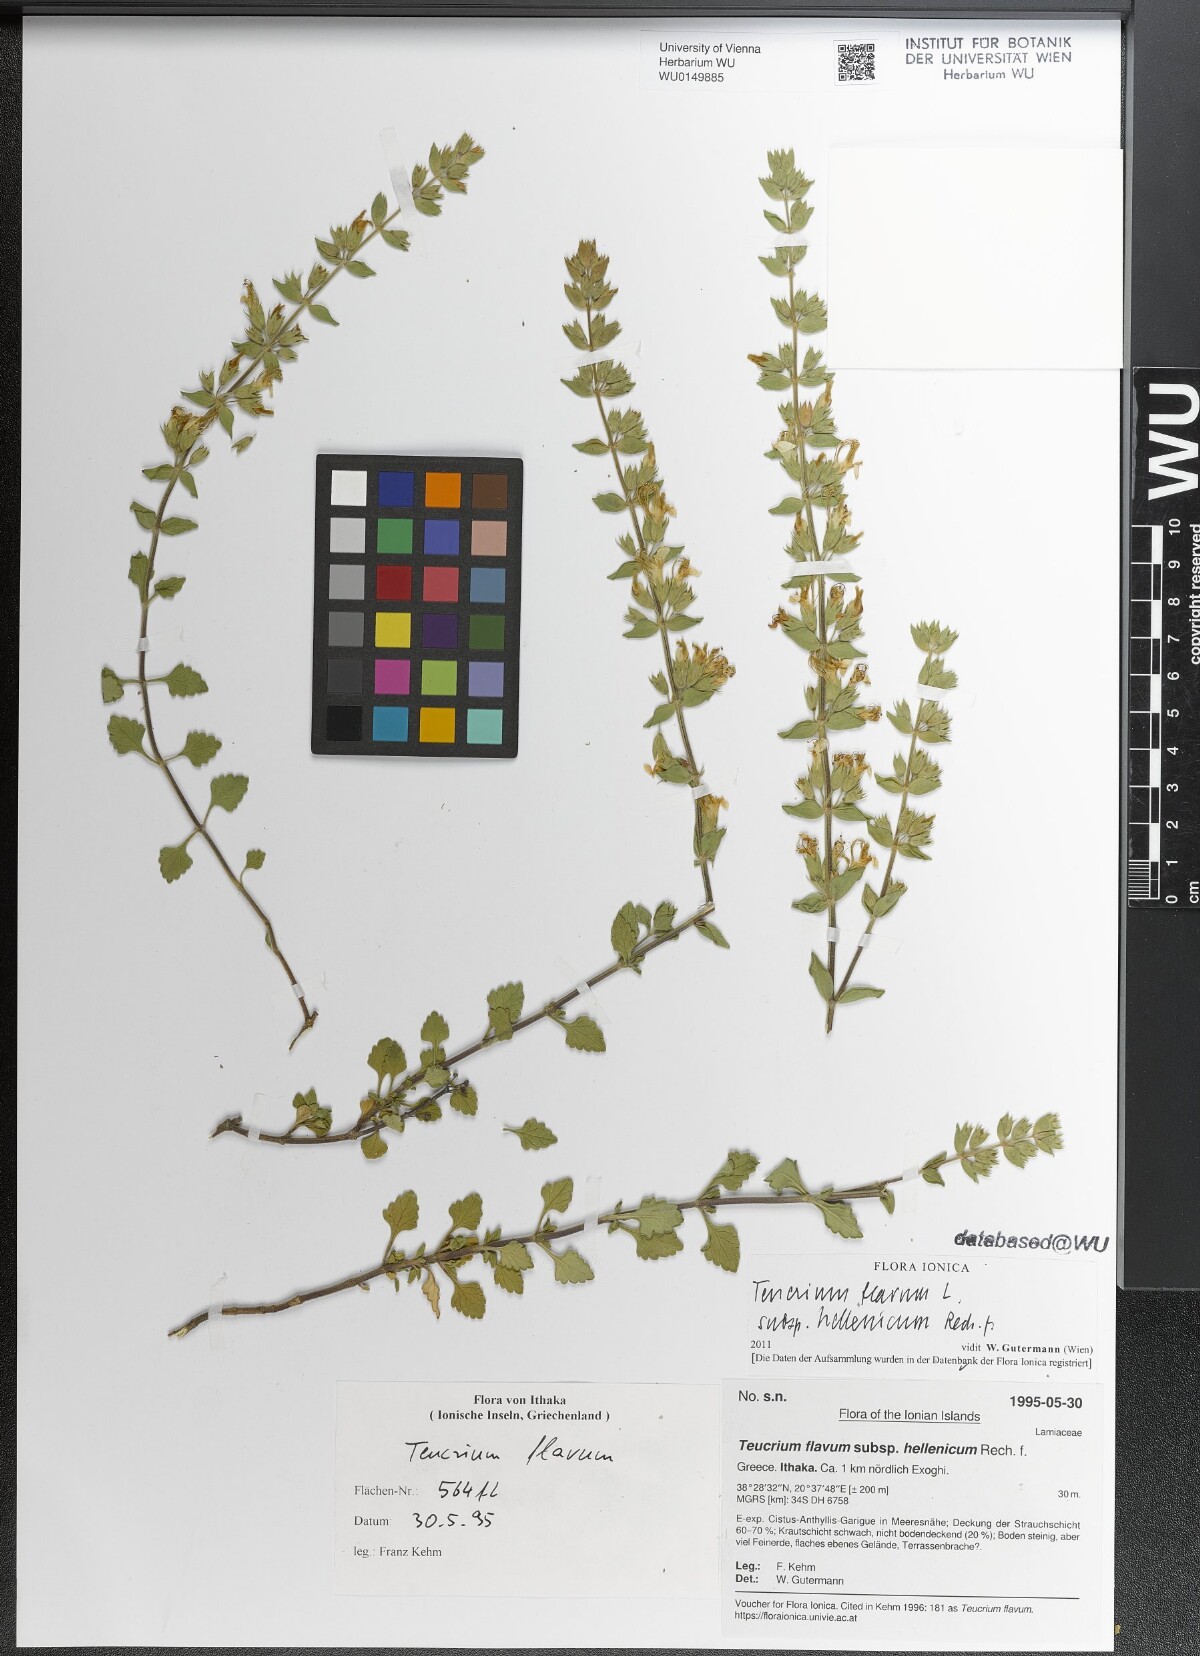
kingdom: Plantae
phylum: Tracheophyta
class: Magnoliopsida
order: Lamiales
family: Lamiaceae
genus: Teucrium
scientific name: Teucrium flavum
